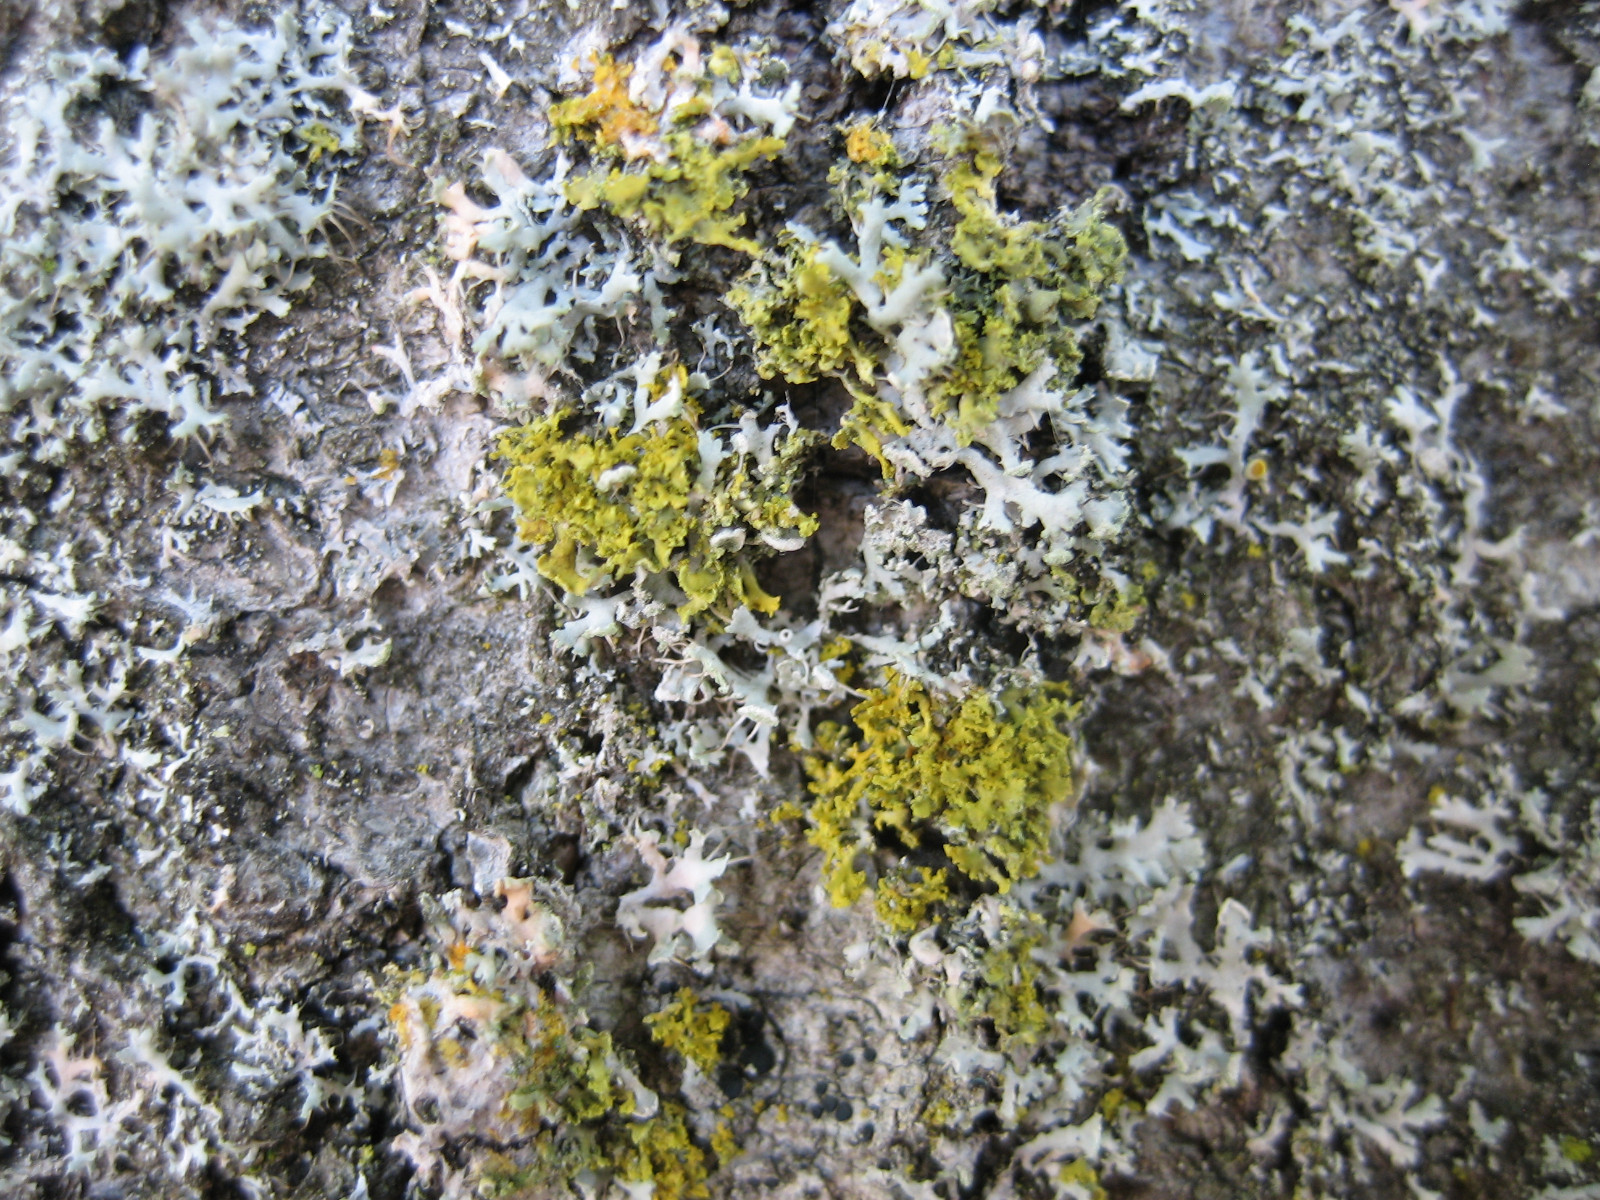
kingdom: Fungi
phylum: Ascomycota
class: Lecanoromycetes
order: Teloschistales
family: Teloschistaceae
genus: Polycauliona
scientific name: Polycauliona candelaria
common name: tue-orangelav
